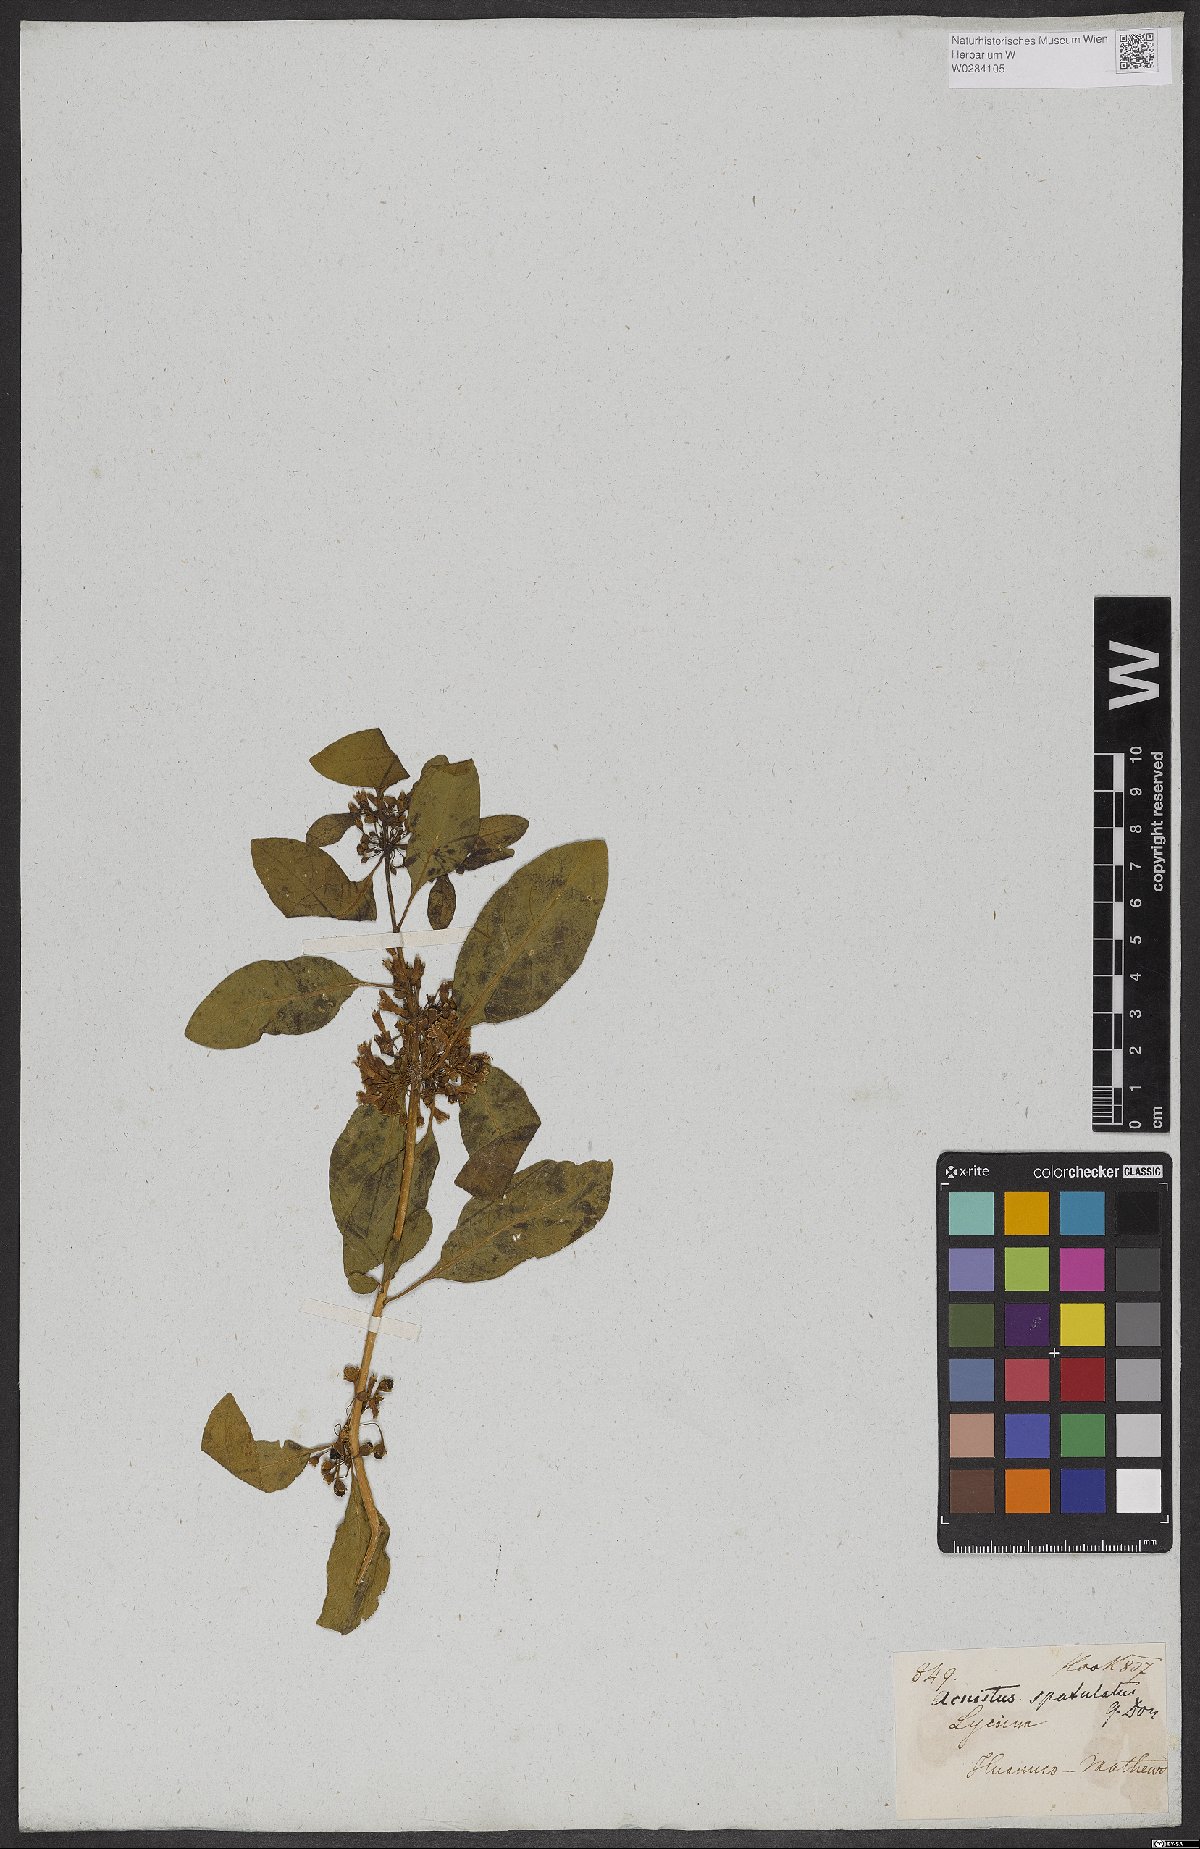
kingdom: Plantae
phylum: Tracheophyta
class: Magnoliopsida
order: Solanales
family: Solanaceae
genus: Dunalia
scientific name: Dunalia spathulata
